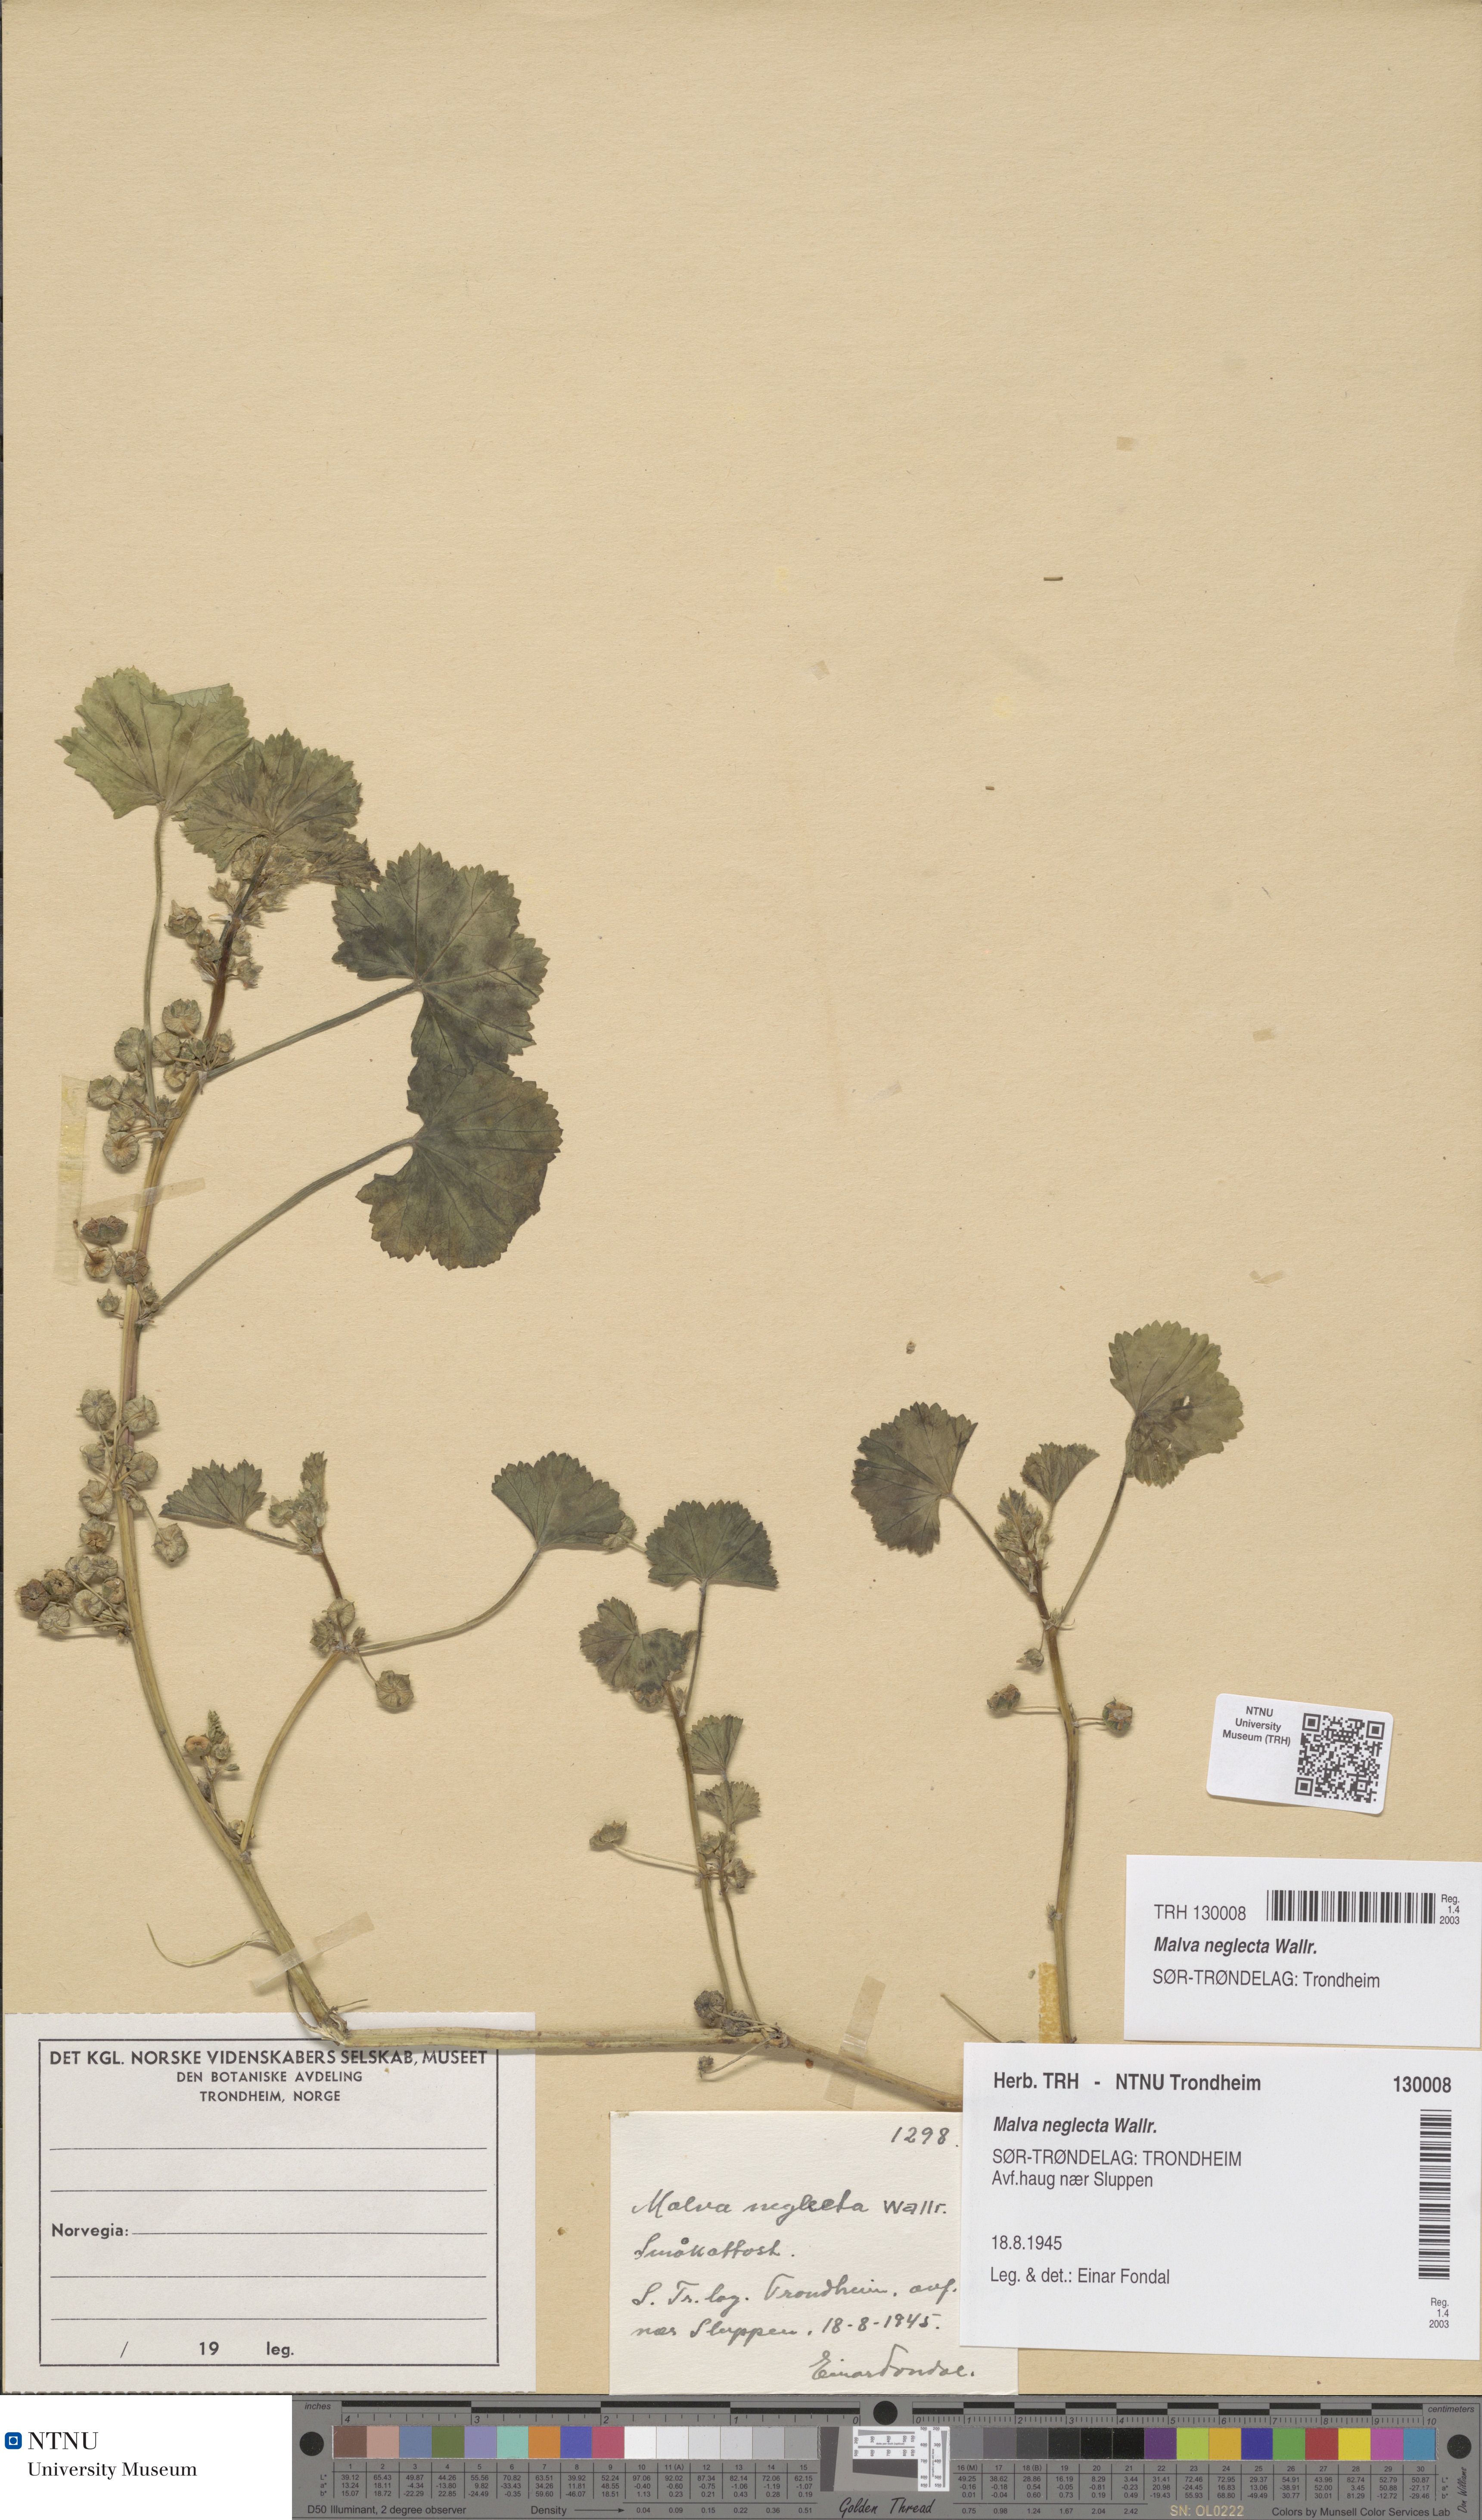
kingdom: Plantae
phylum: Tracheophyta
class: Magnoliopsida
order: Malvales
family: Malvaceae
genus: Malva
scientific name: Malva neglecta
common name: Common mallow
